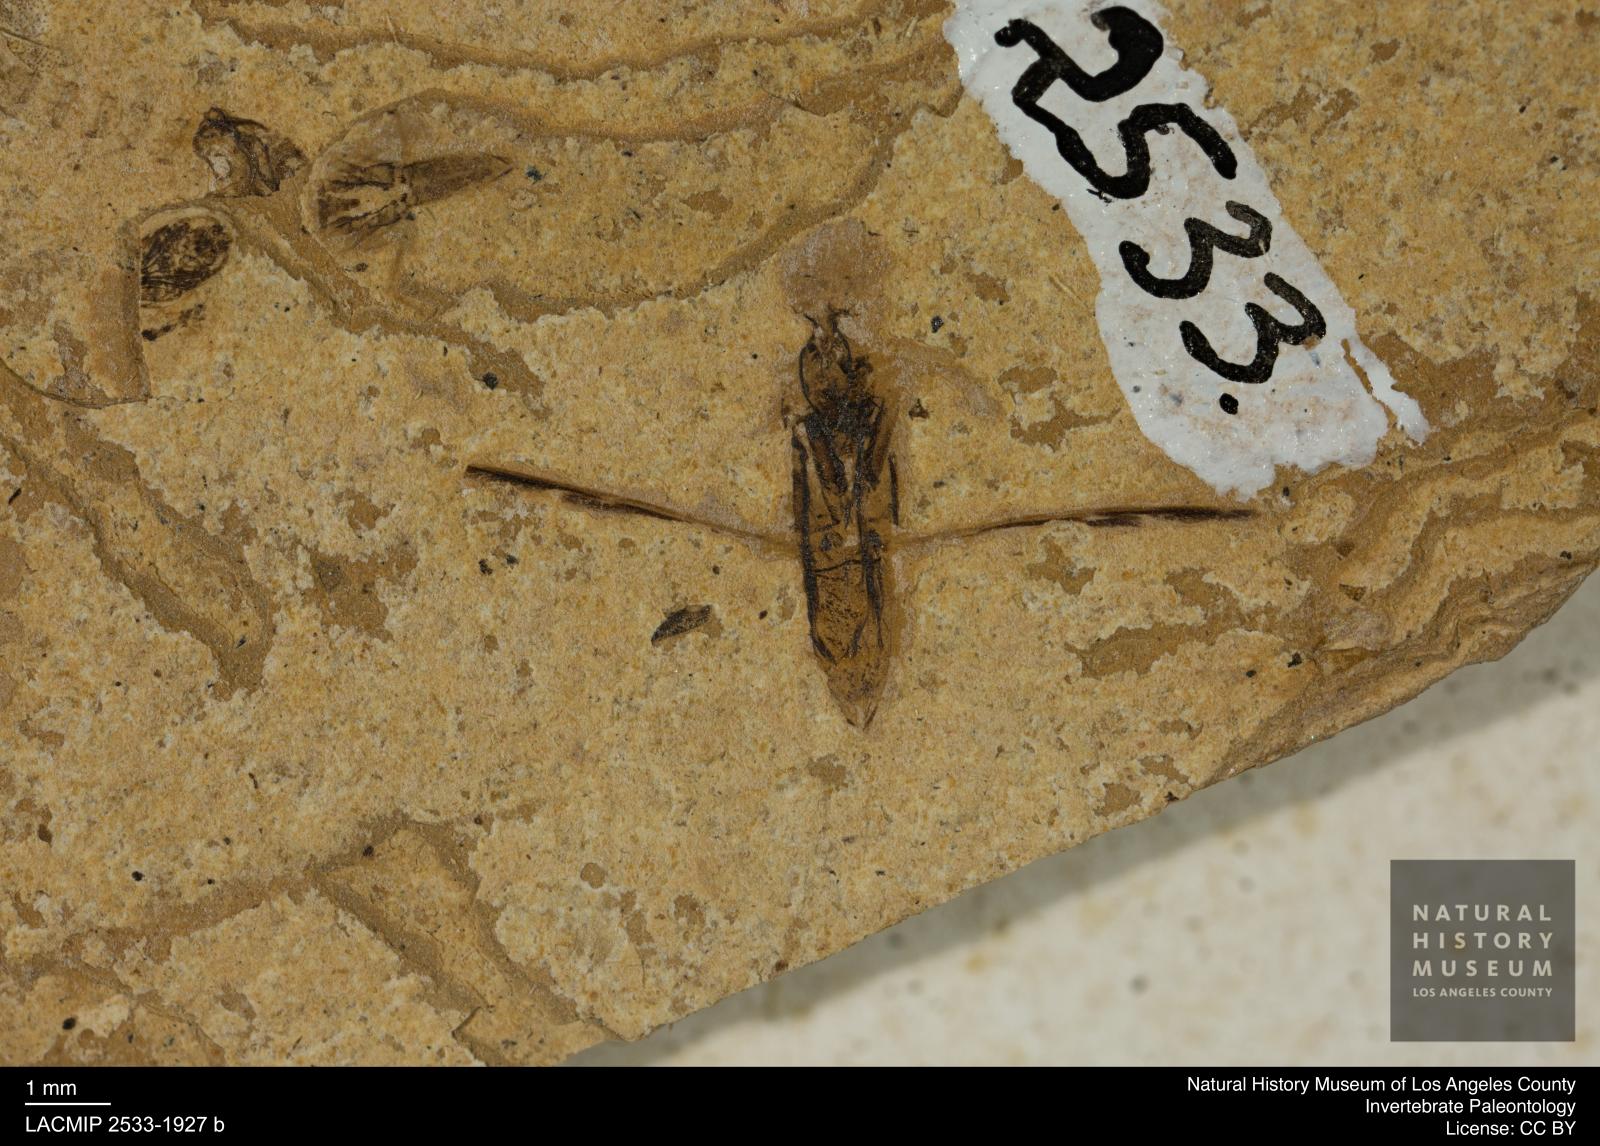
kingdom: Animalia
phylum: Arthropoda
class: Insecta
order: Hemiptera
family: Notonectidae
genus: Notonecta
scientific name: Notonecta
